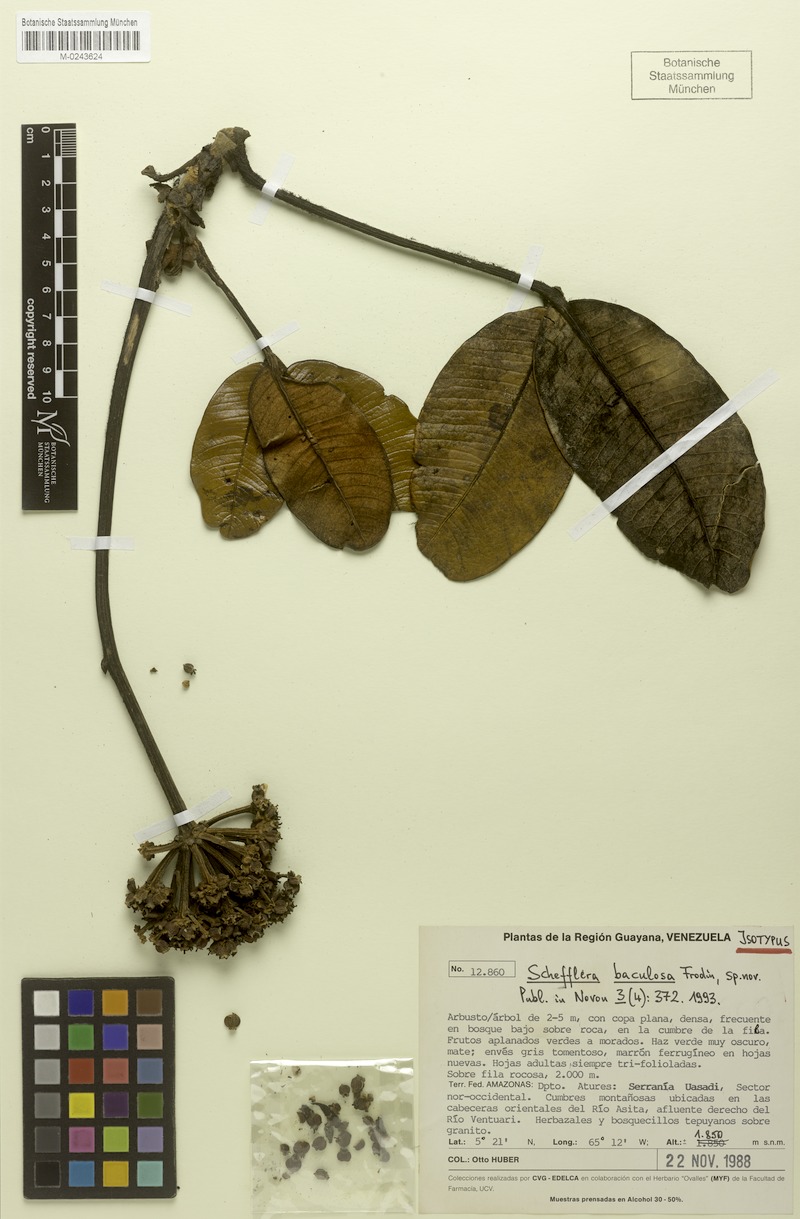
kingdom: Plantae
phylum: Tracheophyta
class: Magnoliopsida
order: Apiales
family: Araliaceae
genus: Crepinella
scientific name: Crepinella baculosa
